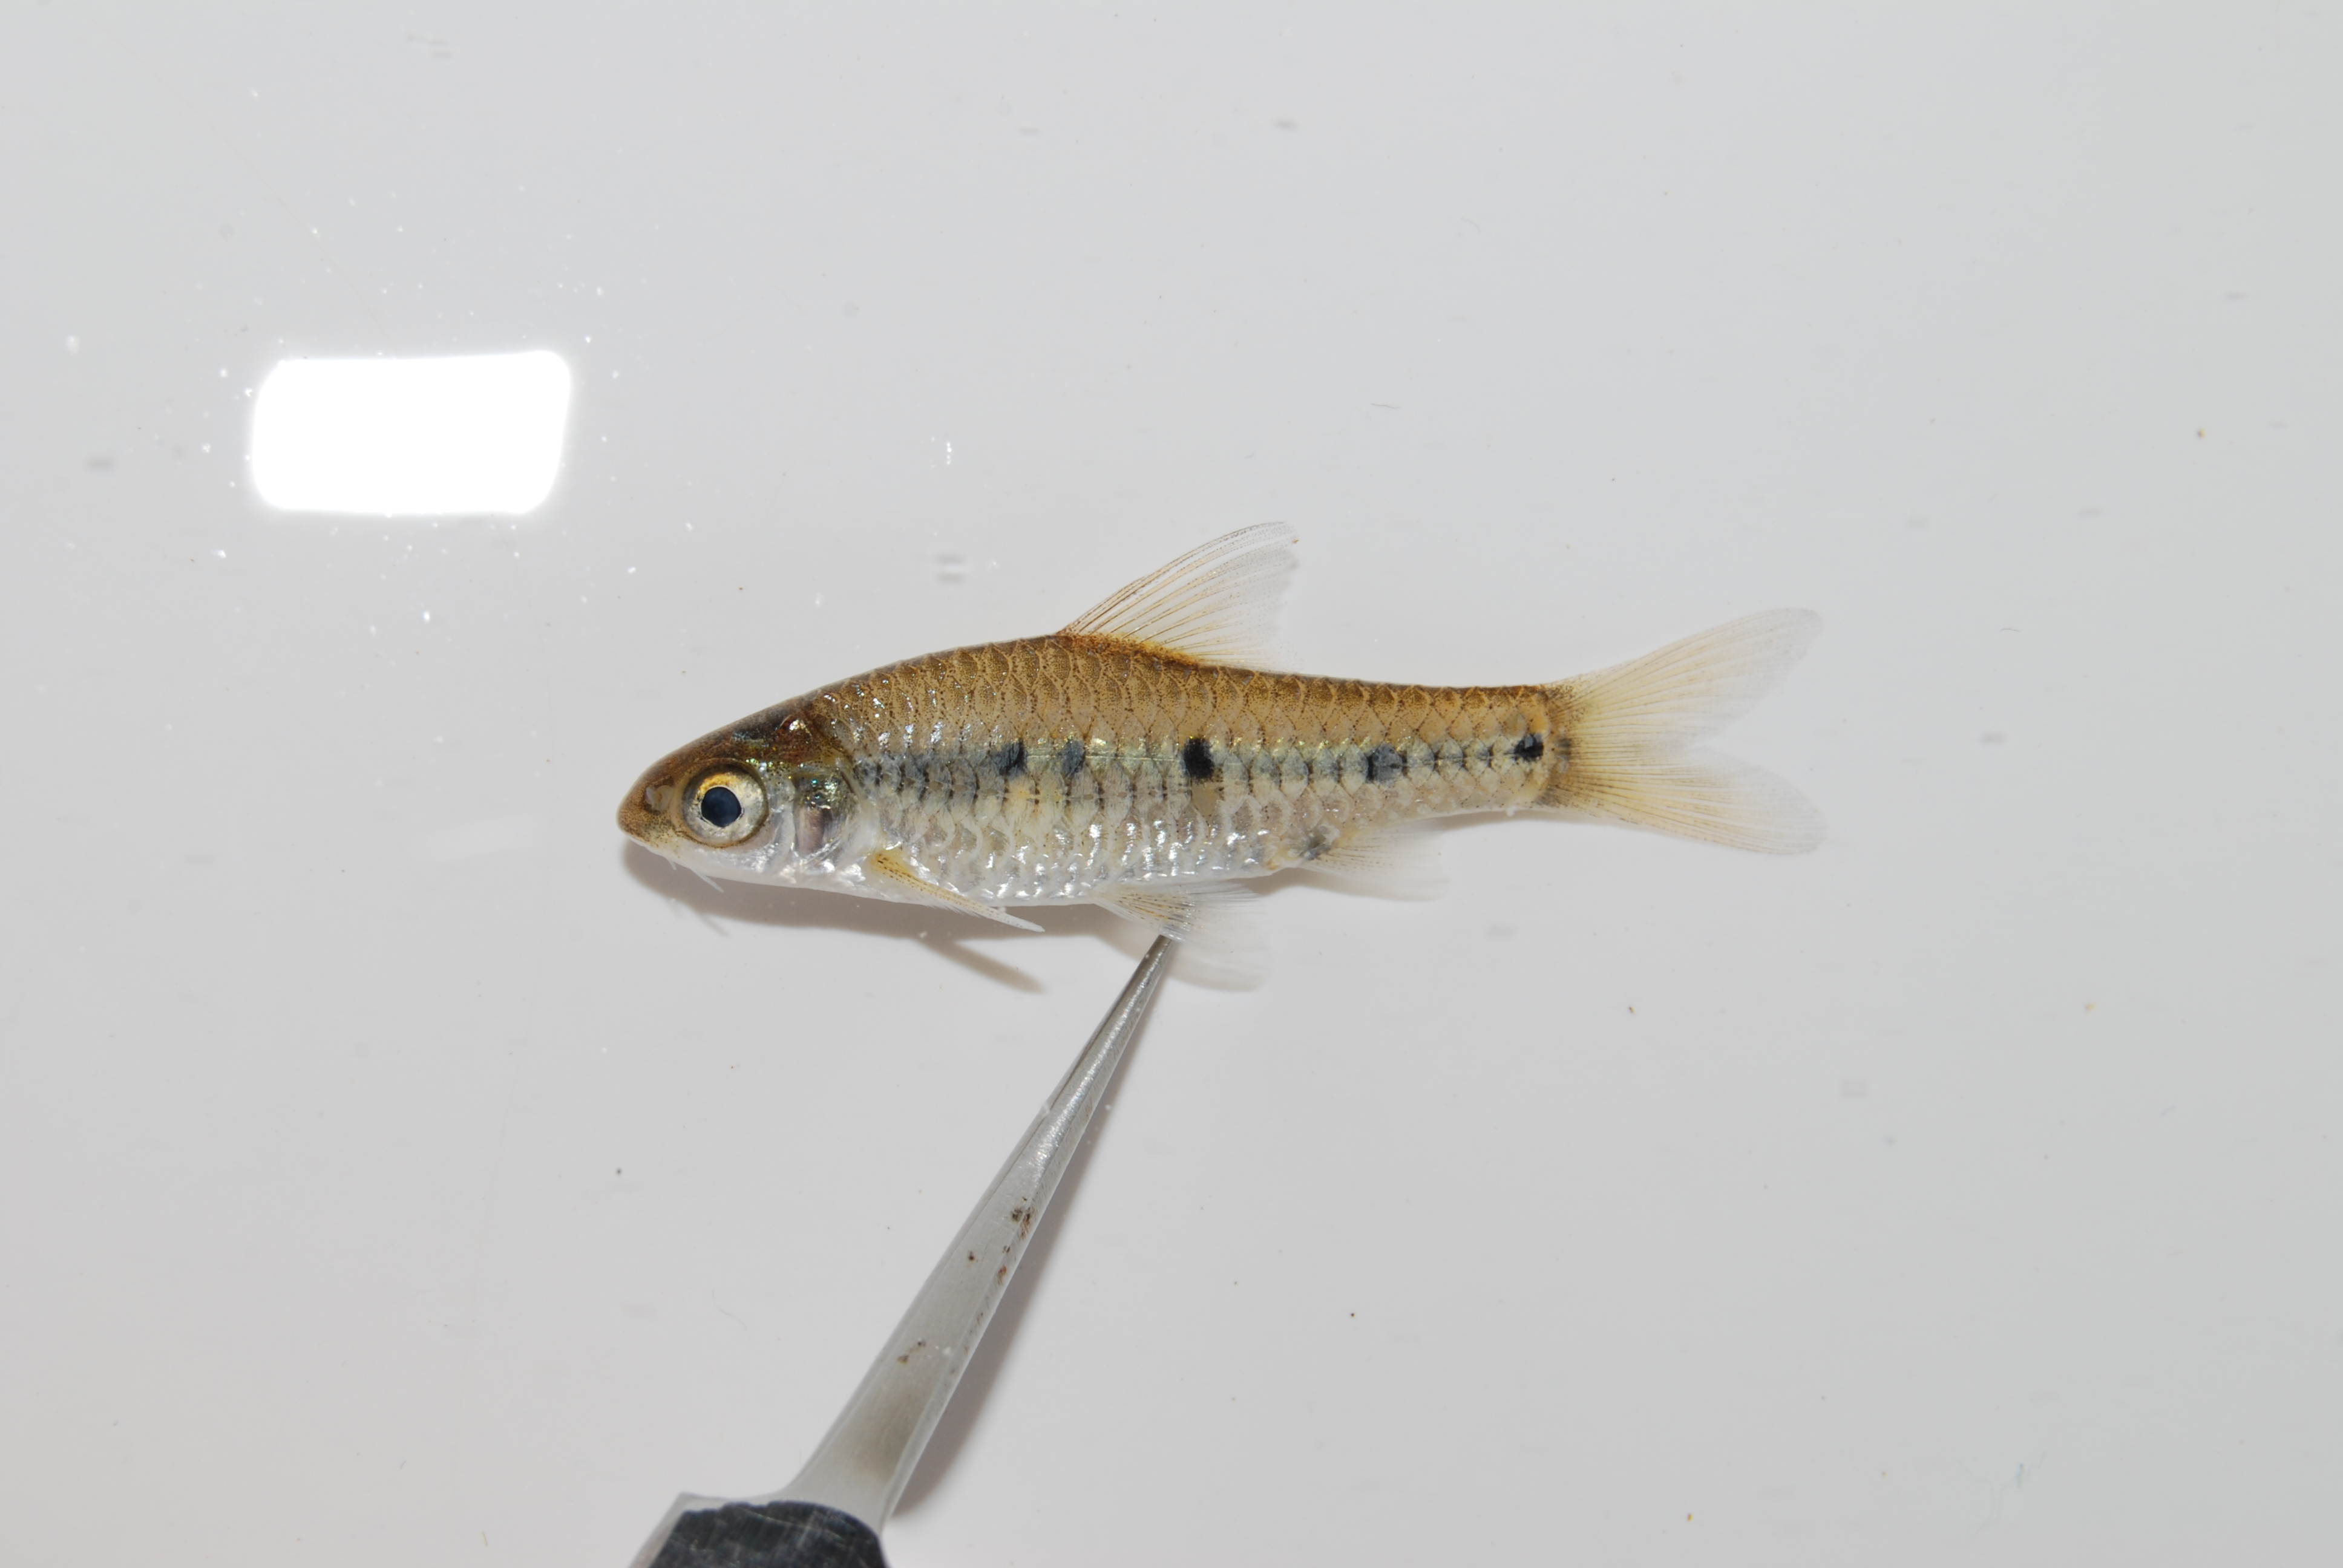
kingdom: Animalia
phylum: Chordata
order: Cypriniformes
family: Cyprinidae
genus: Enteromius
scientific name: Enteromius annectens
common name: Broadstriped barb
